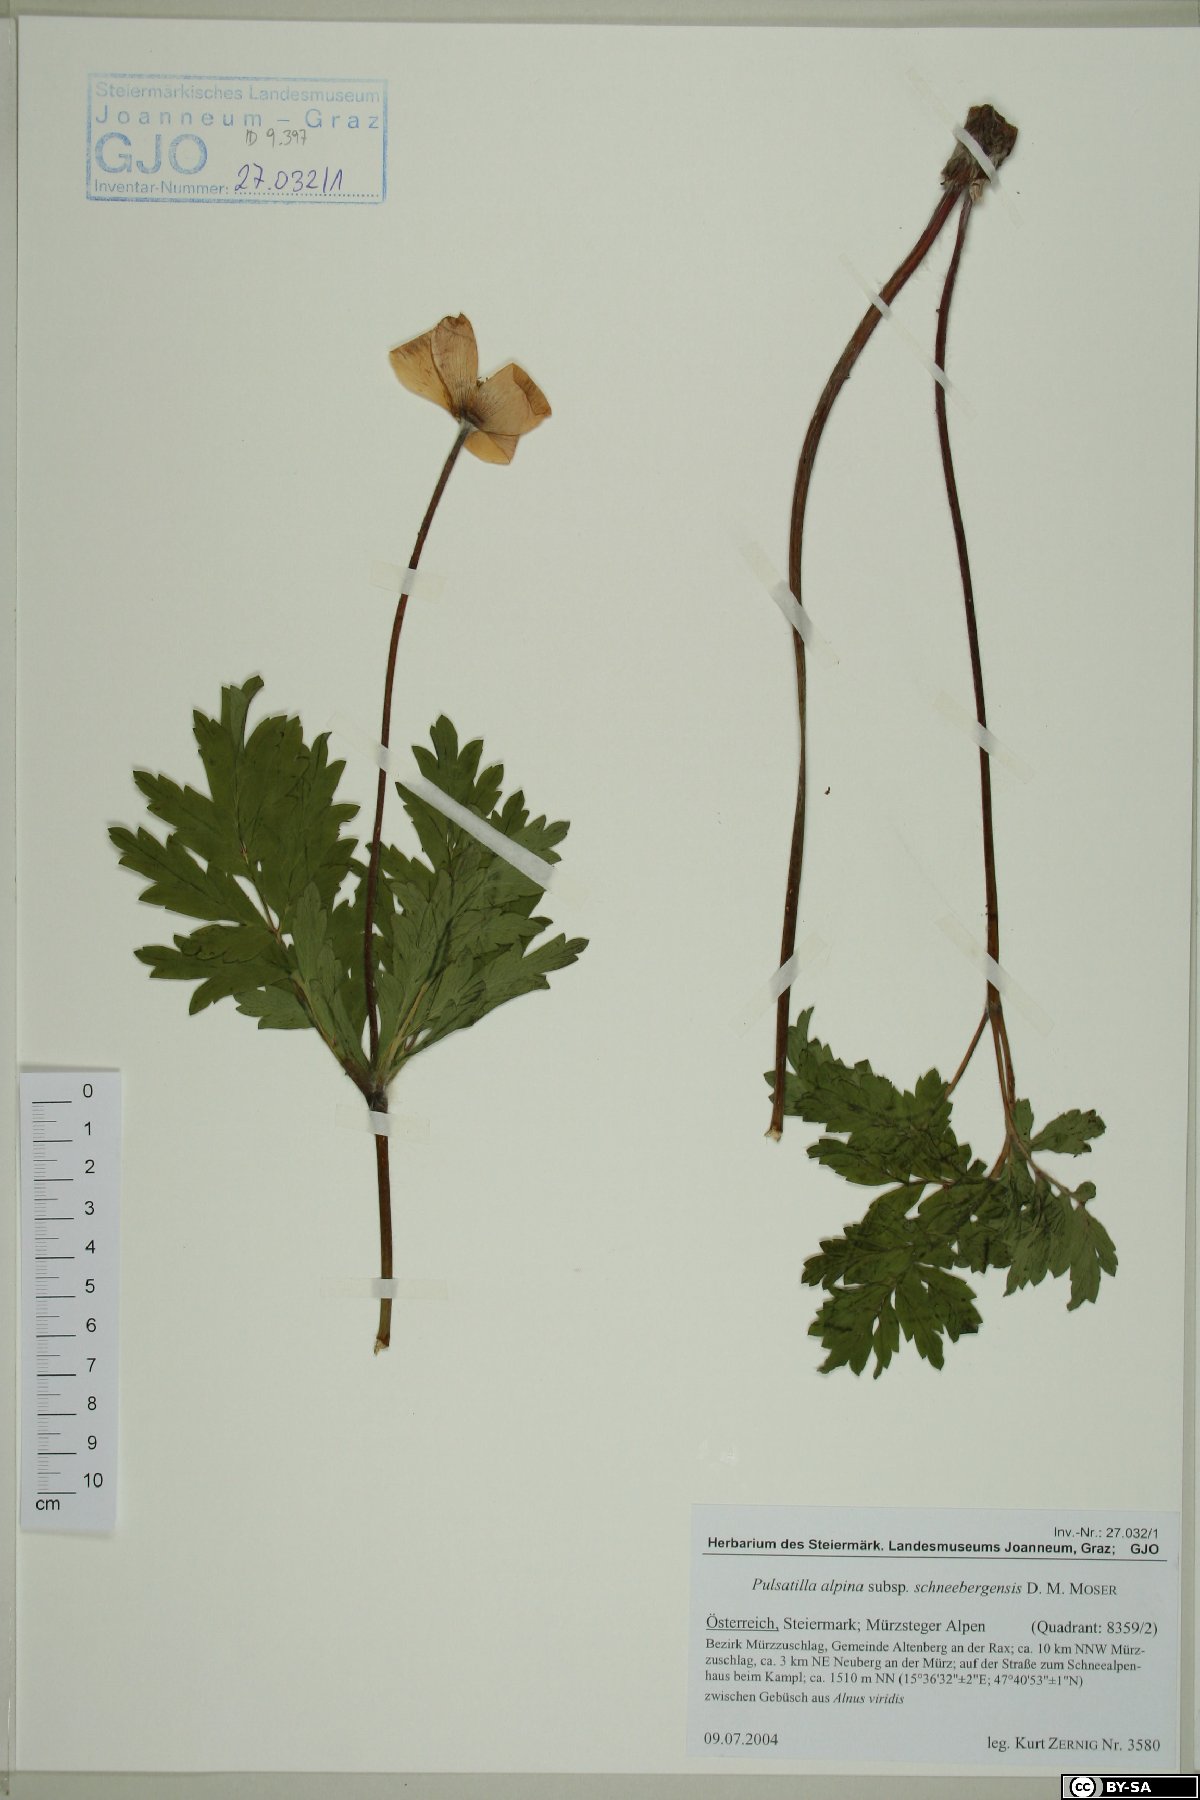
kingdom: Plantae
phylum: Tracheophyta
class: Magnoliopsida
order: Ranunculales
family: Ranunculaceae
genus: Pulsatilla
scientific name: Pulsatilla alpina
